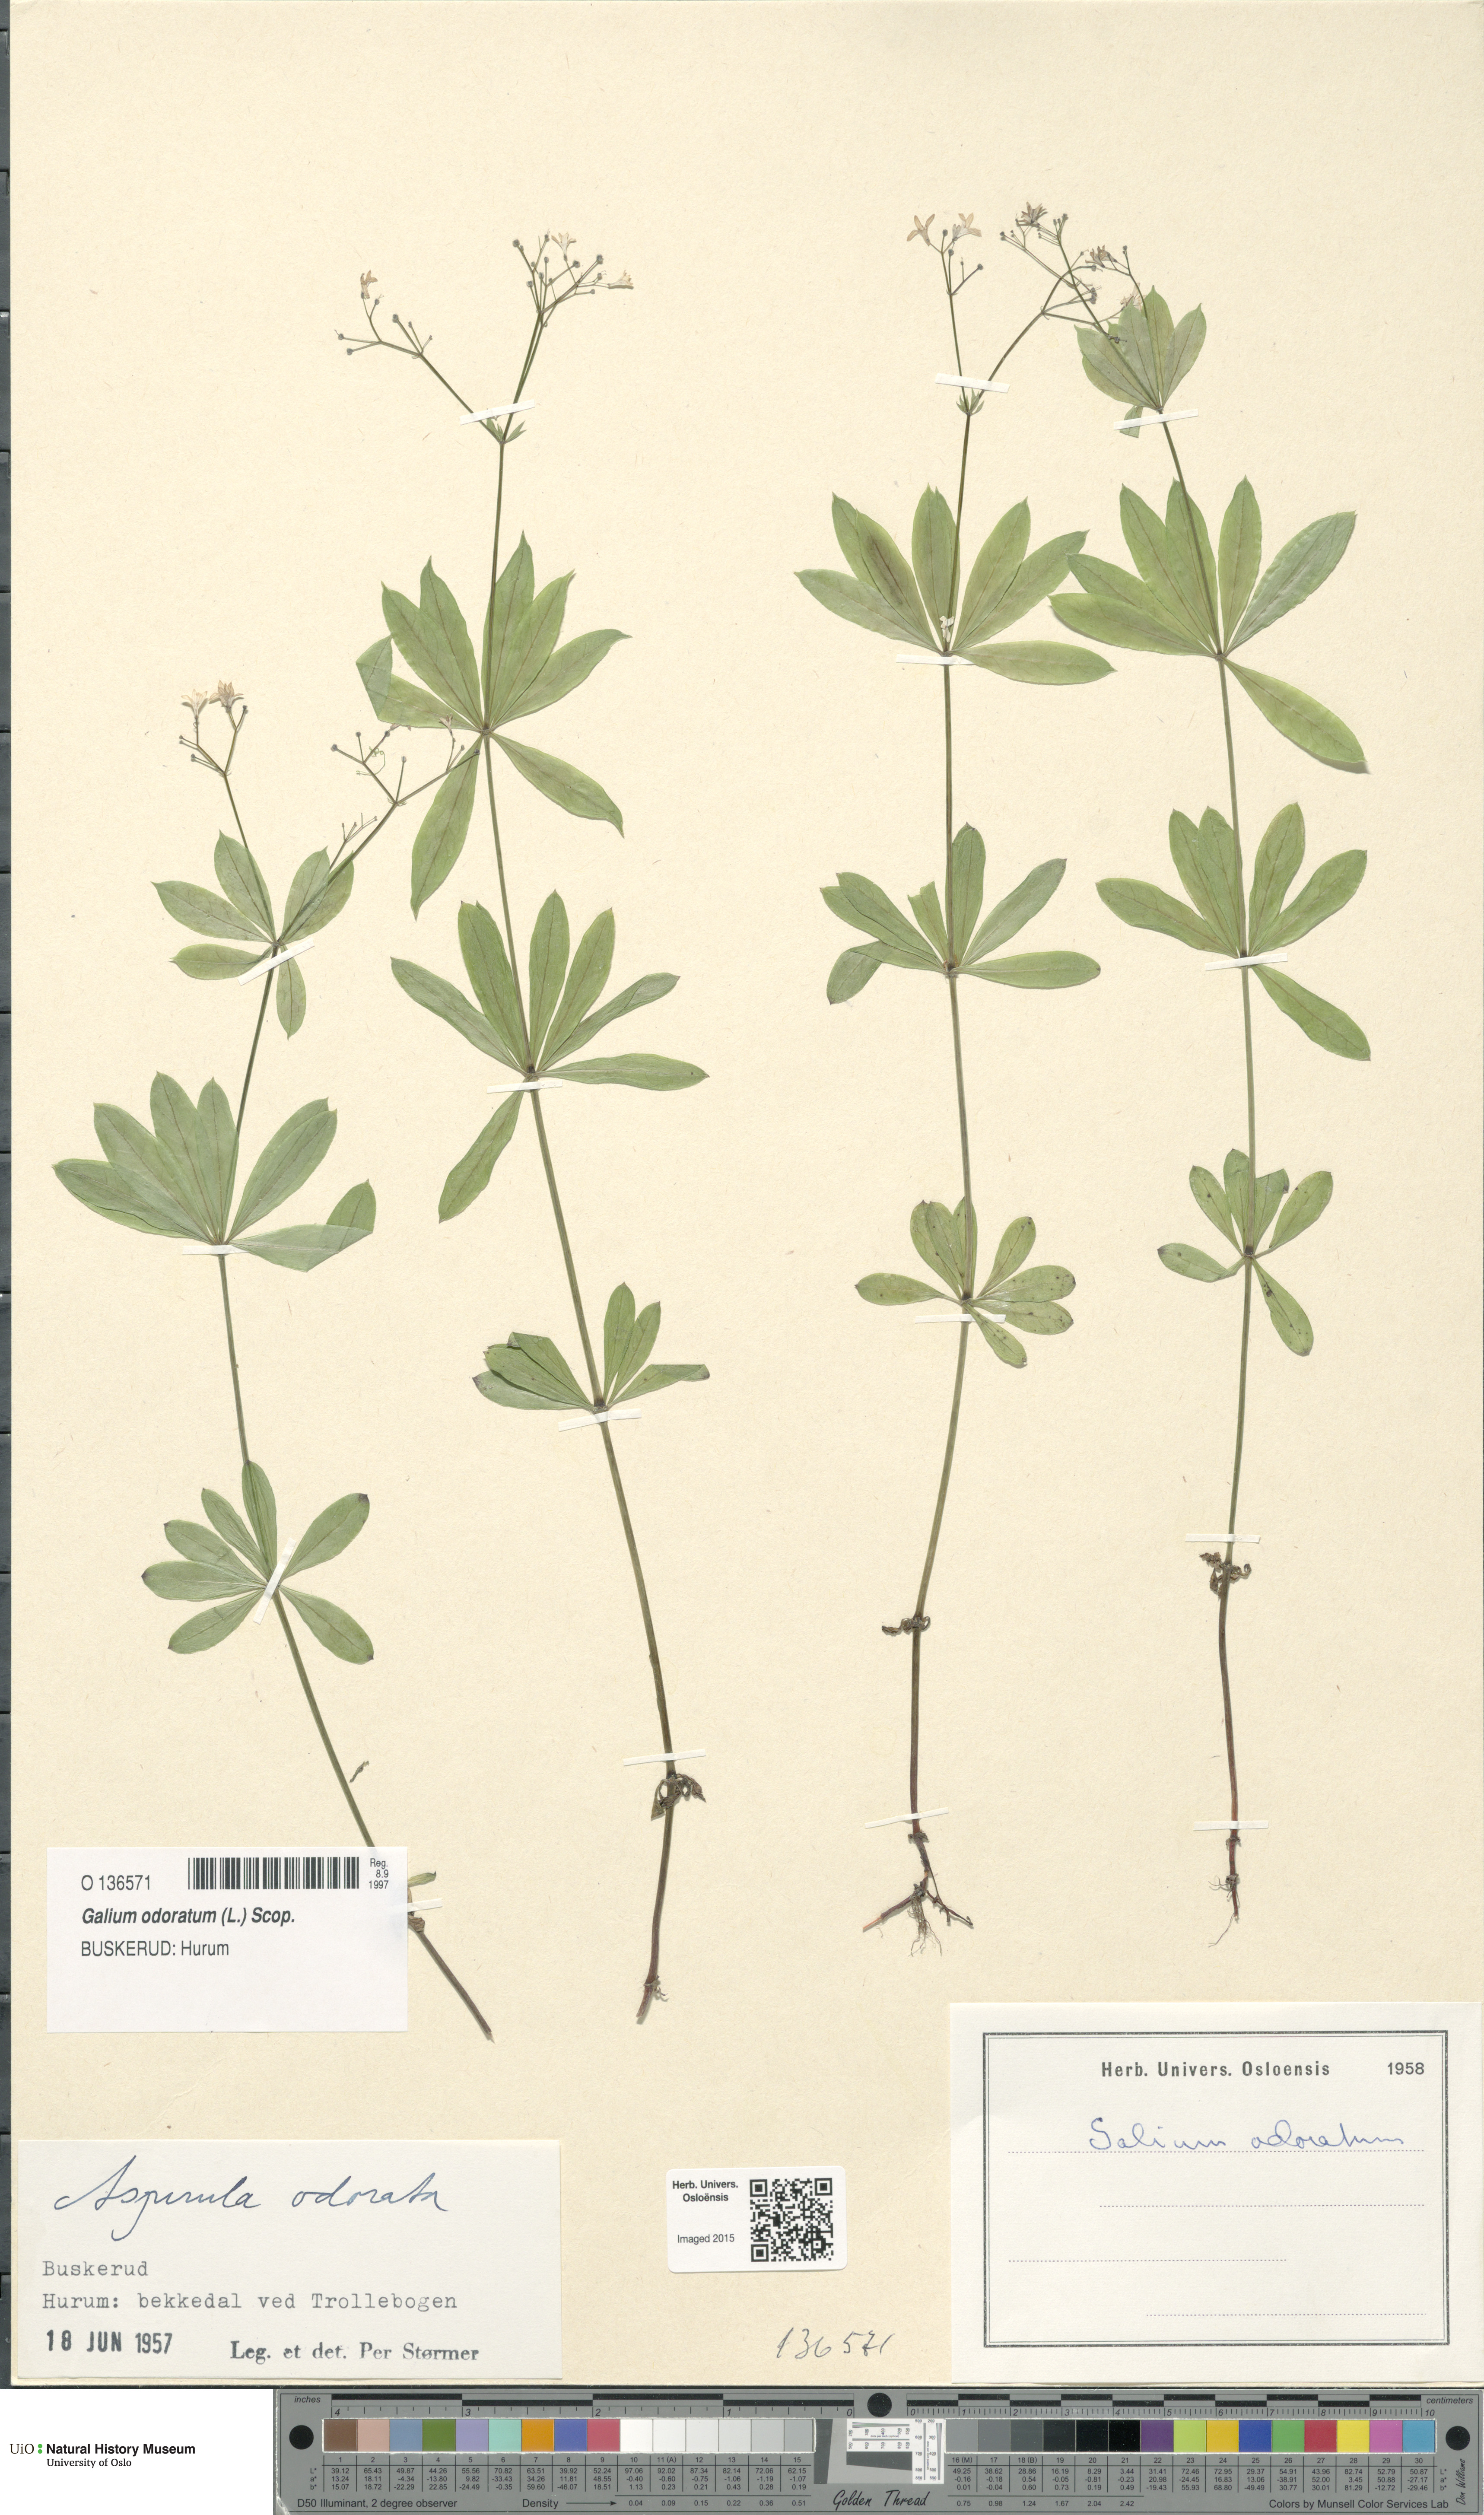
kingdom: Plantae
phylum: Tracheophyta
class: Magnoliopsida
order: Gentianales
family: Rubiaceae
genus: Galium
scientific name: Galium odoratum
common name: Sweet woodruff
